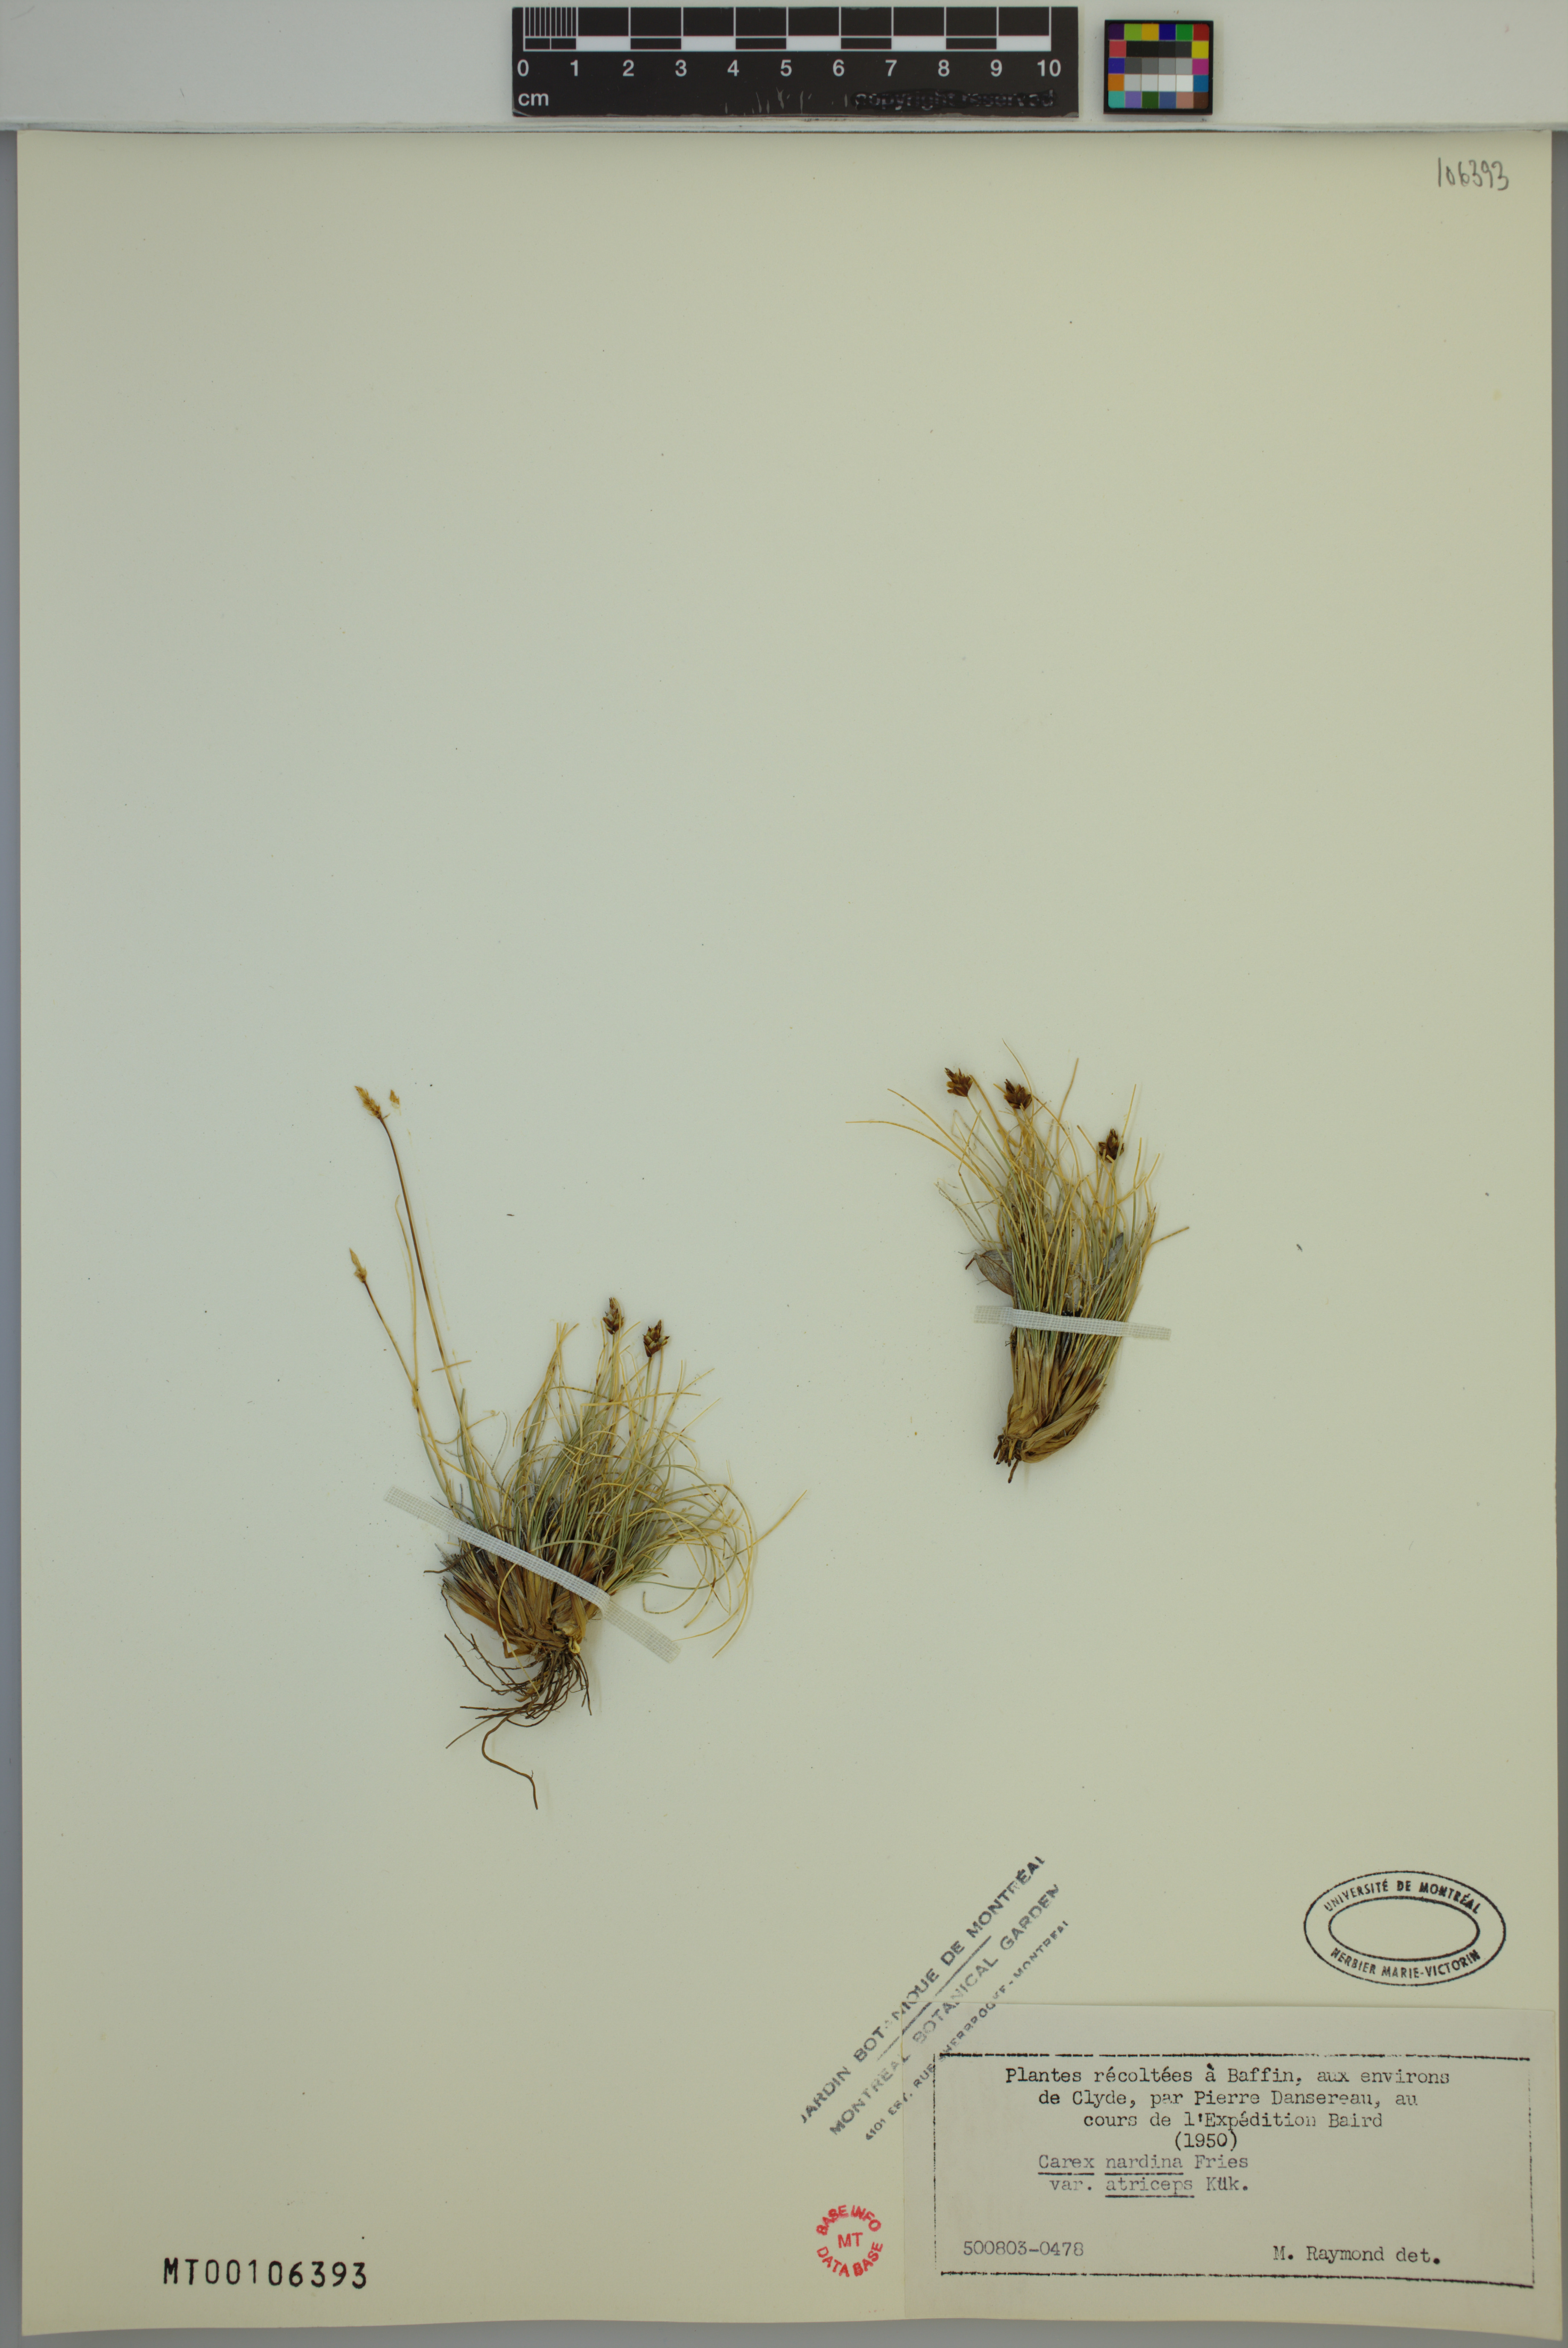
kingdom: Plantae
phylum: Tracheophyta
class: Liliopsida
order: Poales
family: Cyperaceae
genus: Carex
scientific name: Carex nardina
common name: Nard sedge
